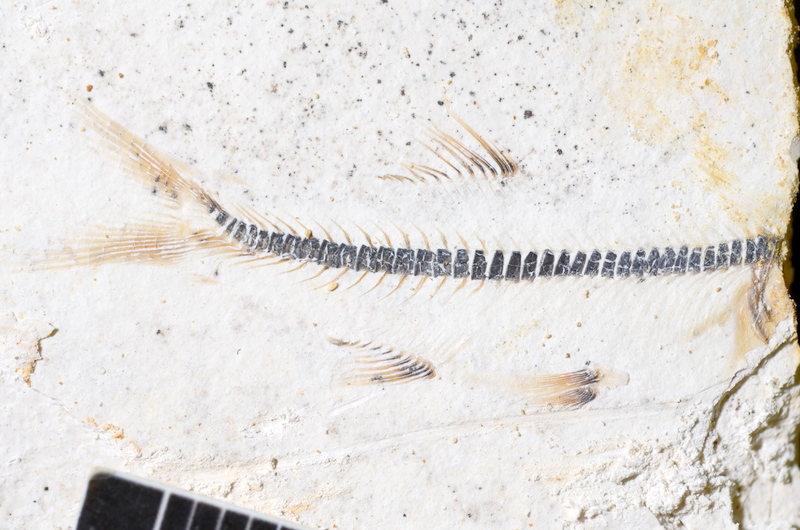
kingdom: Animalia
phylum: Chordata
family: Ascalaboidae
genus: Ebertichthys
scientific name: Ebertichthys ettlingensis
